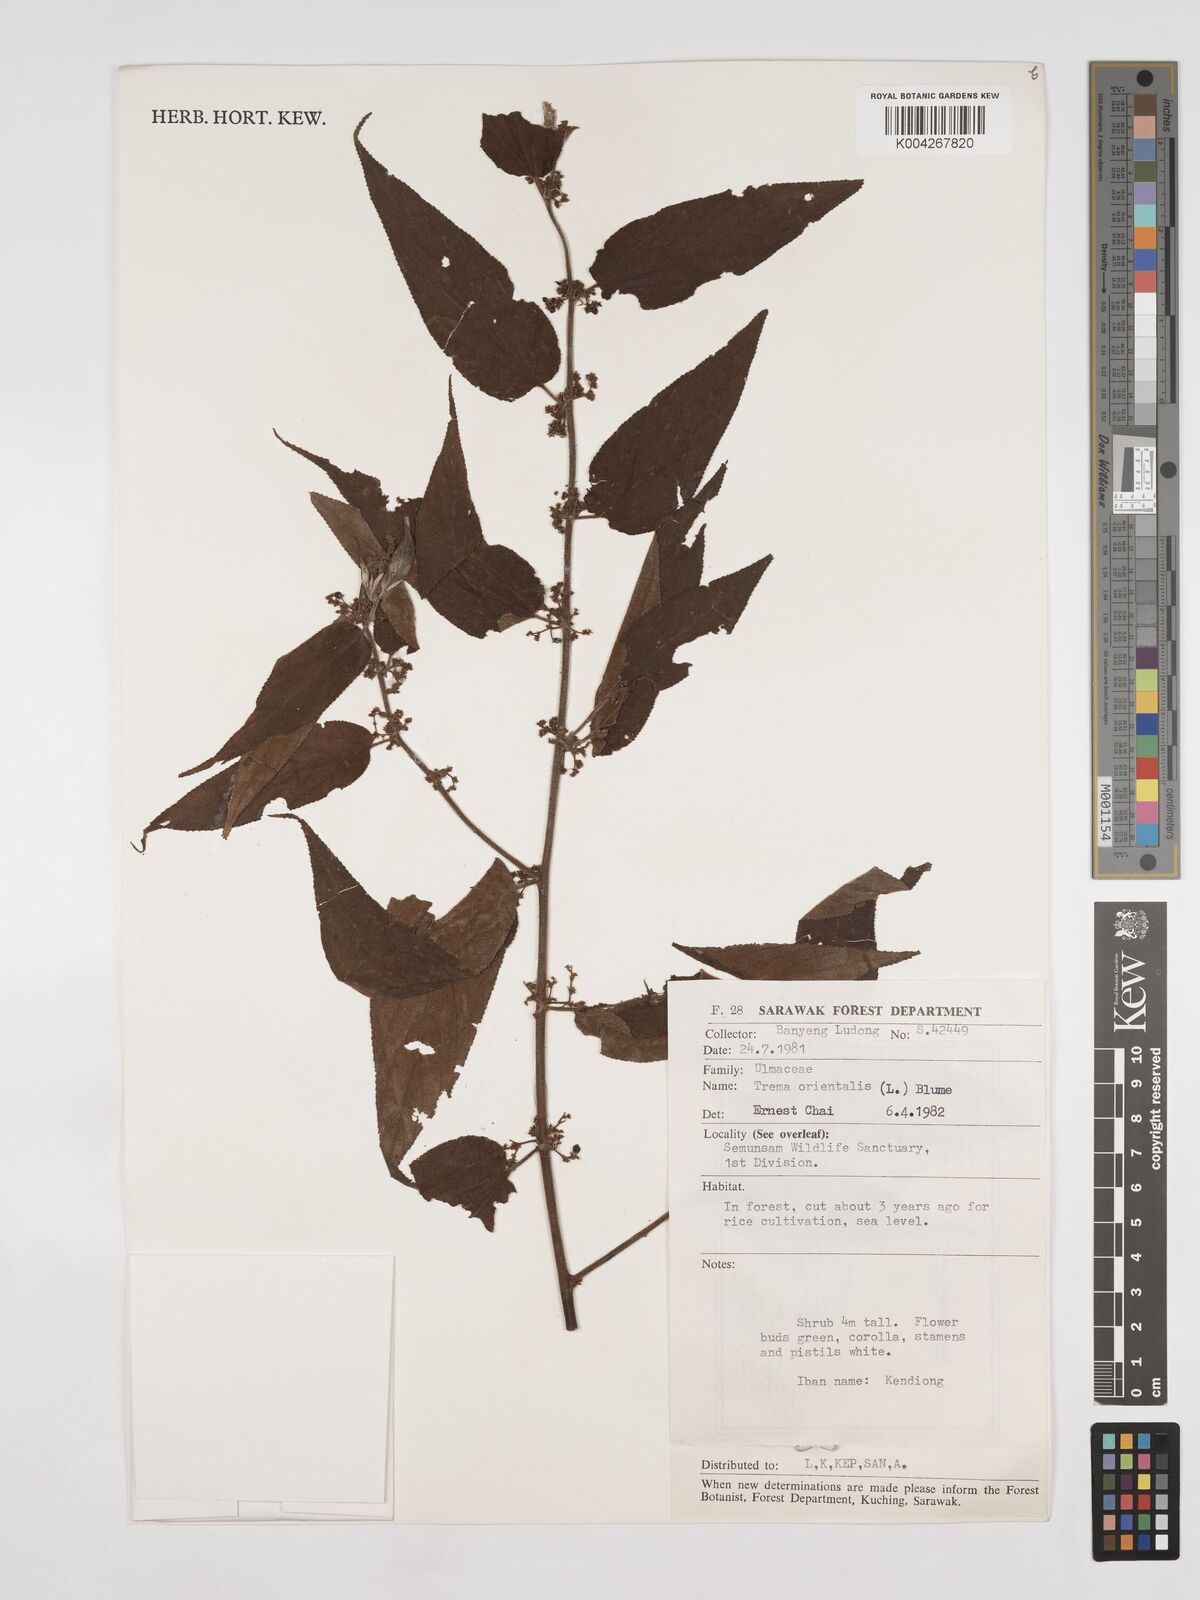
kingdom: Plantae
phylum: Tracheophyta
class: Magnoliopsida
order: Rosales
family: Cannabaceae
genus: Trema
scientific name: Trema orientale
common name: Indian charcoal tree
